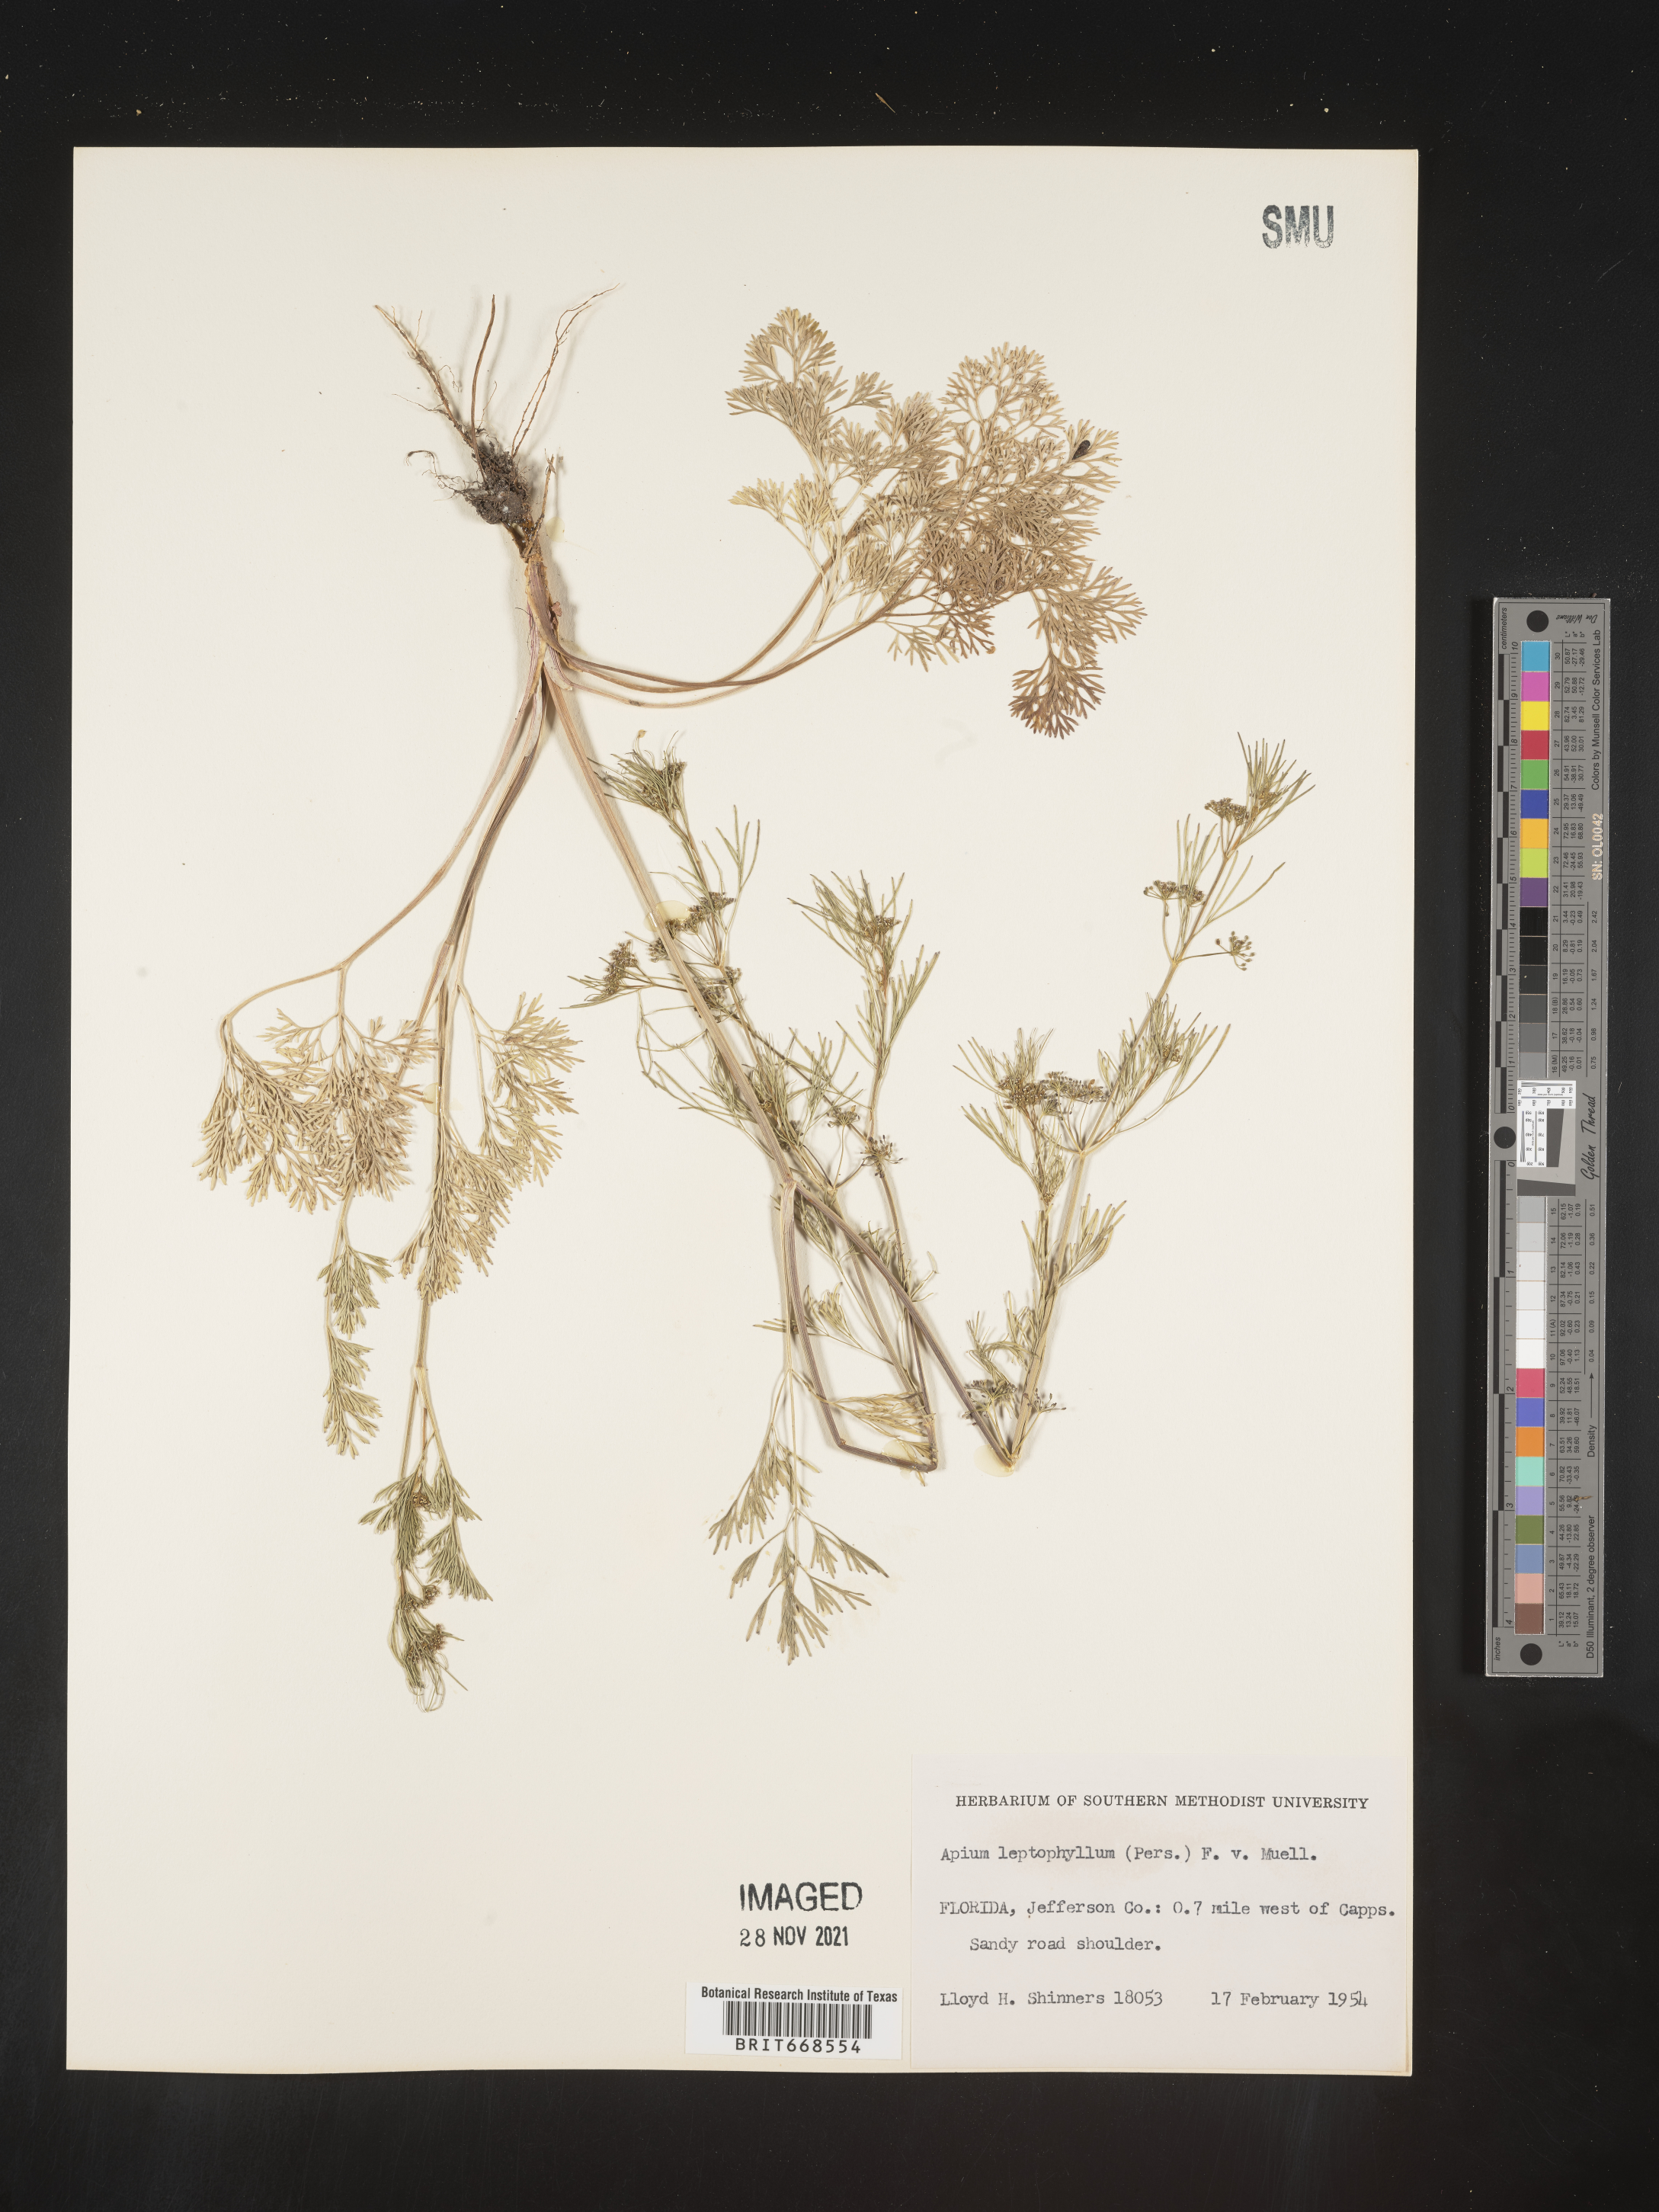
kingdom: Plantae
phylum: Tracheophyta
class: Magnoliopsida
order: Apiales
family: Apiaceae
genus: Cyclospermum
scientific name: Cyclospermum leptophyllum
